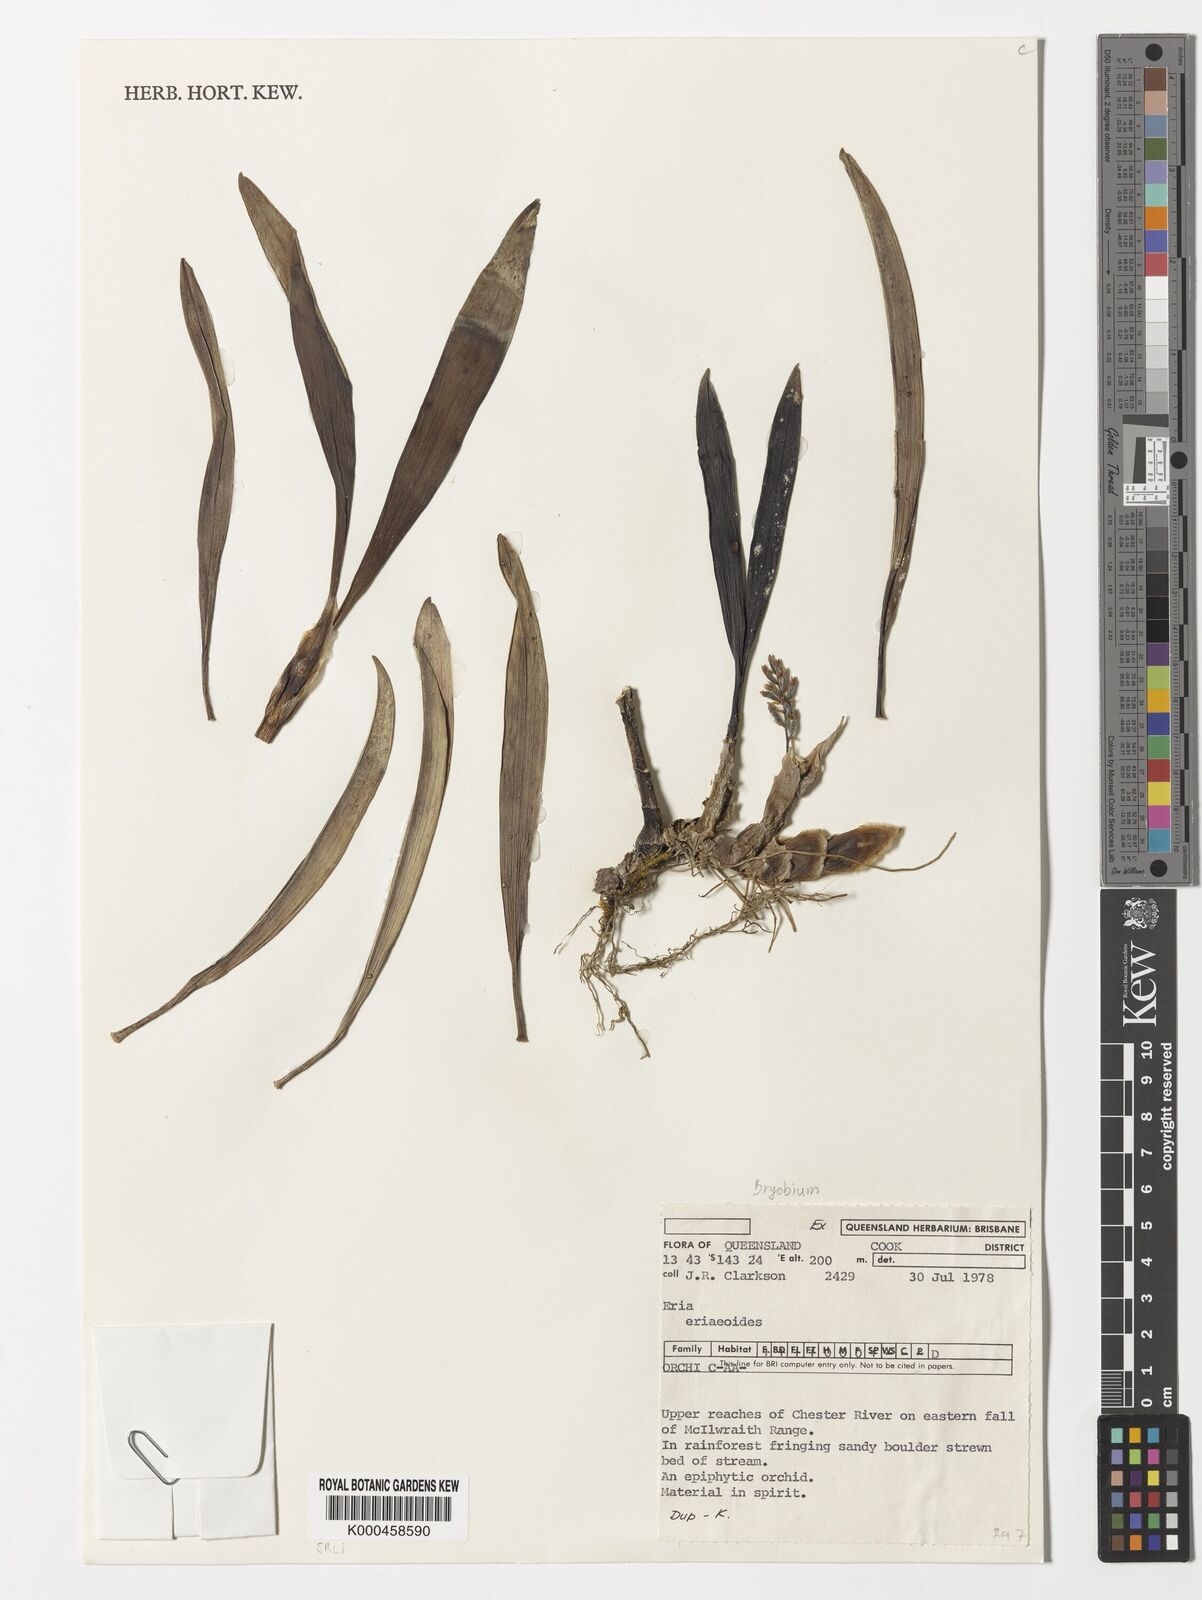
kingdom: Plantae
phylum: Tracheophyta
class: Liliopsida
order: Asparagales
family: Orchidaceae
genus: Bryobium
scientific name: Bryobium eriaeoides
